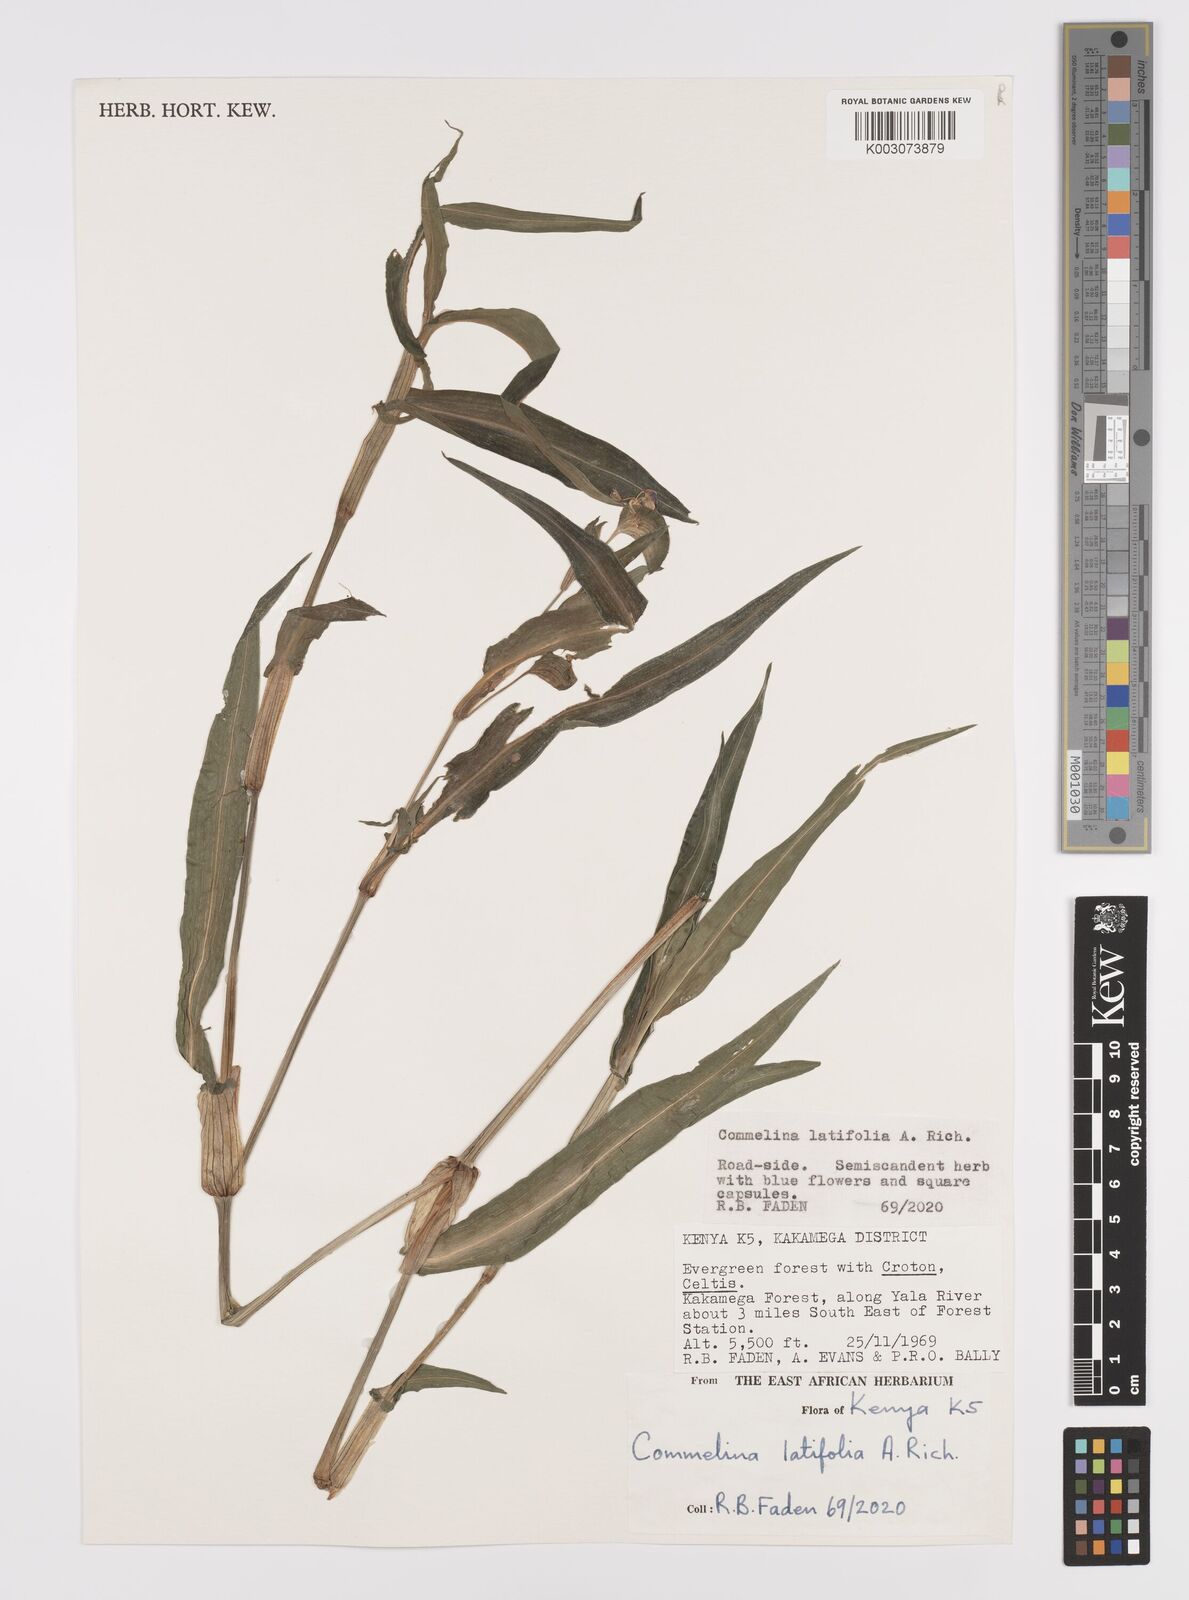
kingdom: Plantae
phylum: Tracheophyta
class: Liliopsida
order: Commelinales
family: Commelinaceae
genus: Commelina
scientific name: Commelina latifolia
